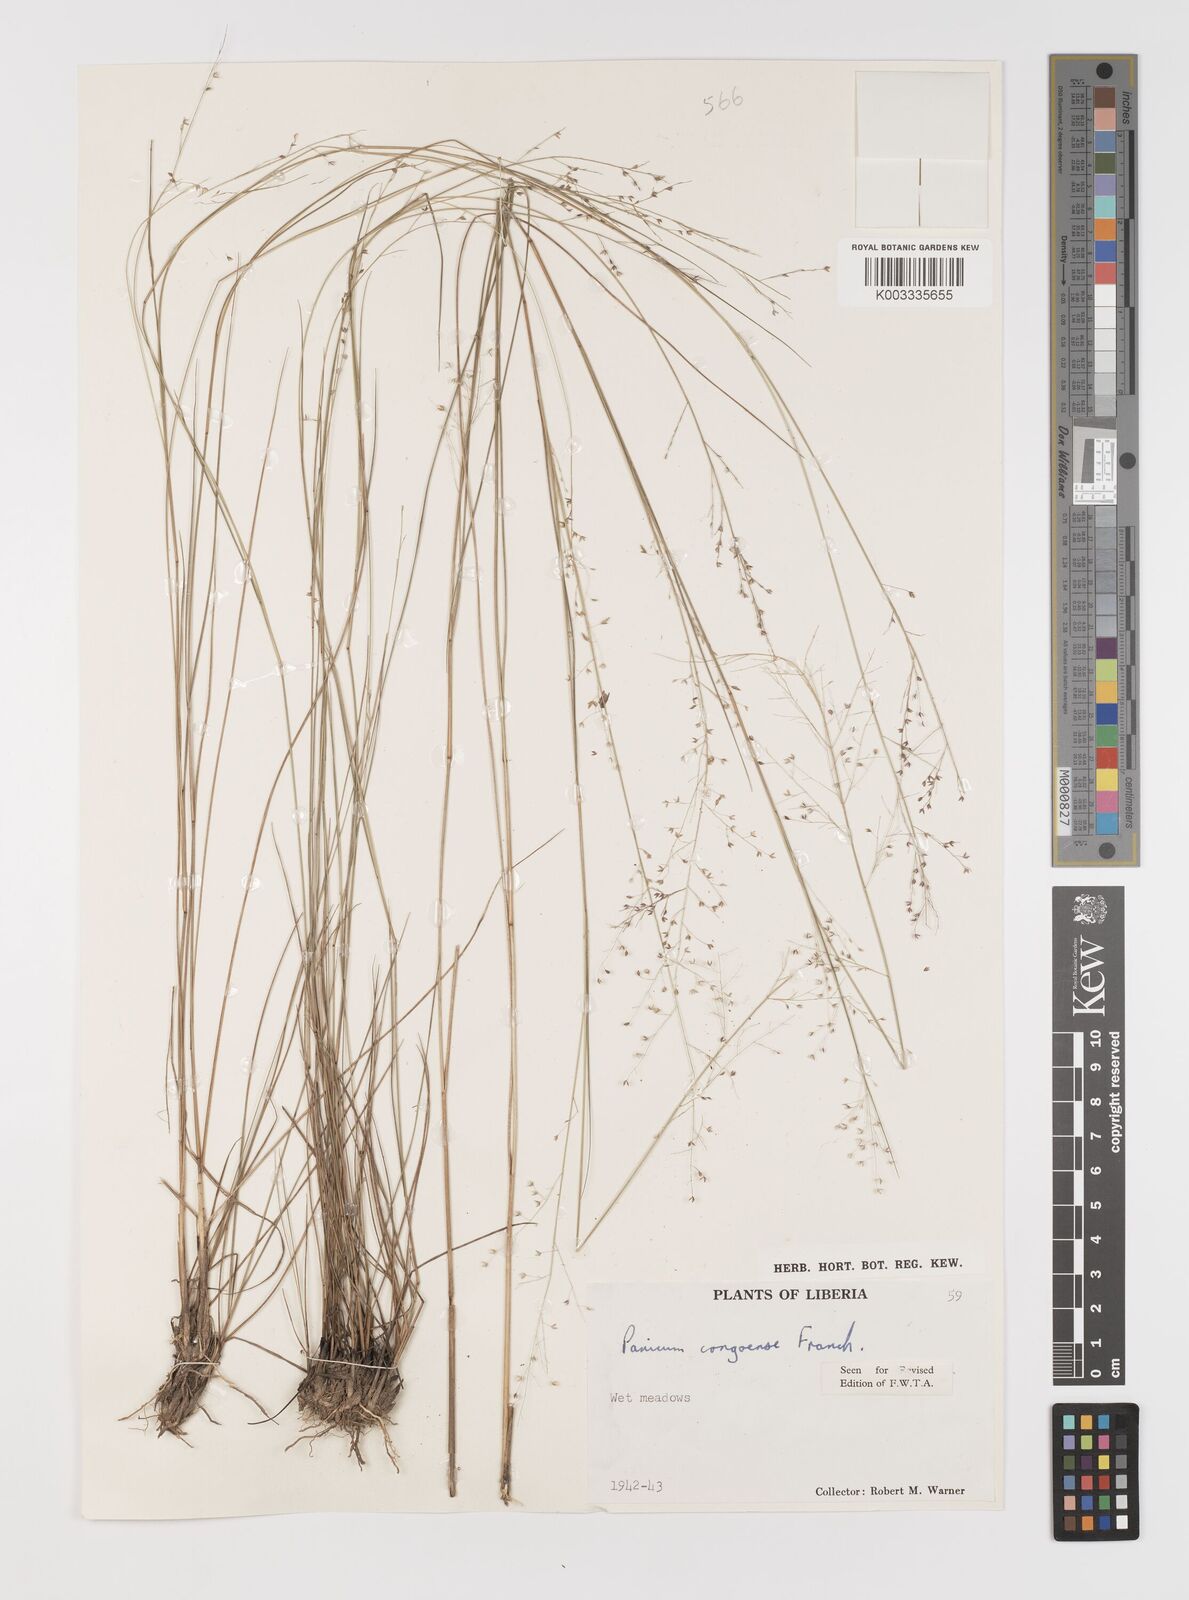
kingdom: Plantae
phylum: Tracheophyta
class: Liliopsida
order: Poales
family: Poaceae
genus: Panicum
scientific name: Panicum congoense
